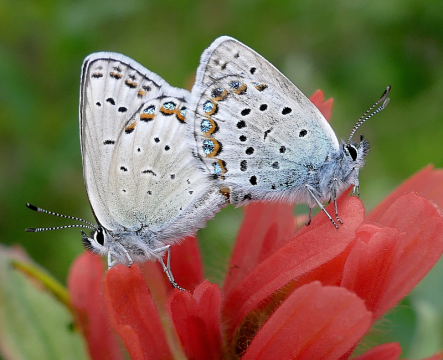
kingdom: Animalia
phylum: Arthropoda
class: Insecta
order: Lepidoptera
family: Lycaenidae
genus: Lycaeides
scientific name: Lycaeides idas
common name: Northern Blue
